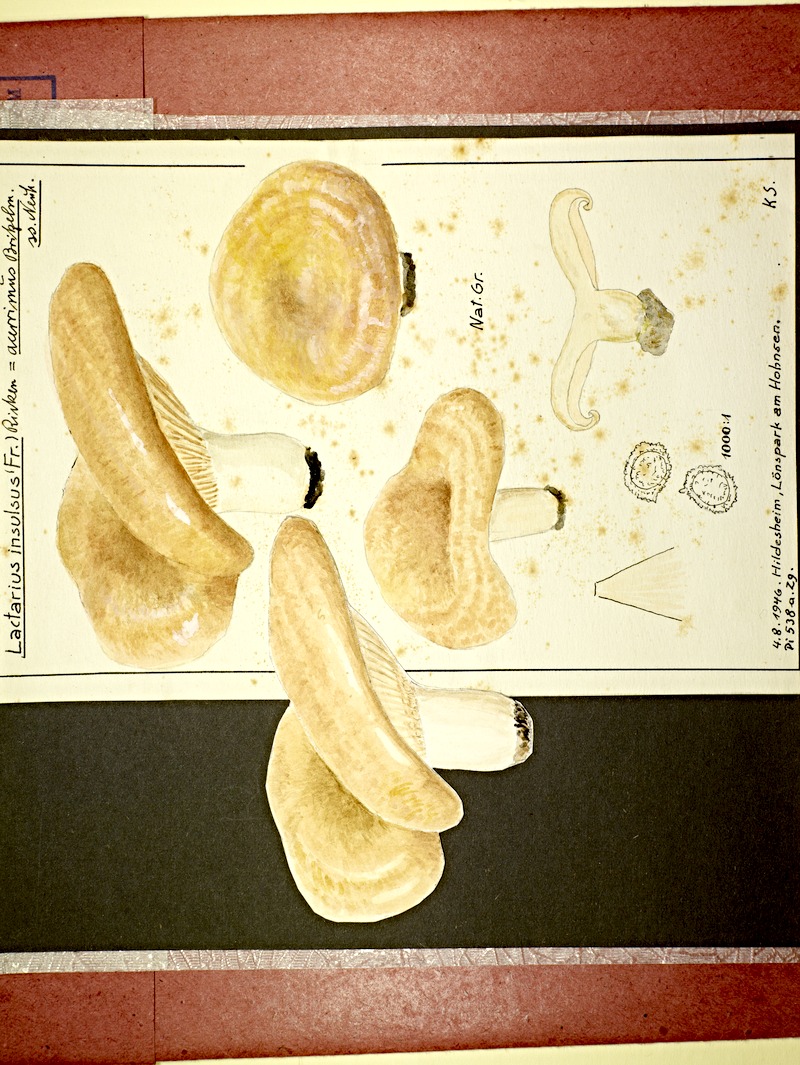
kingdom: Fungi
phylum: Basidiomycota
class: Agaricomycetes
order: Russulales
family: Russulaceae
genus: Lactarius
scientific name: Lactarius acerrimus
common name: Two-spored milkcap
